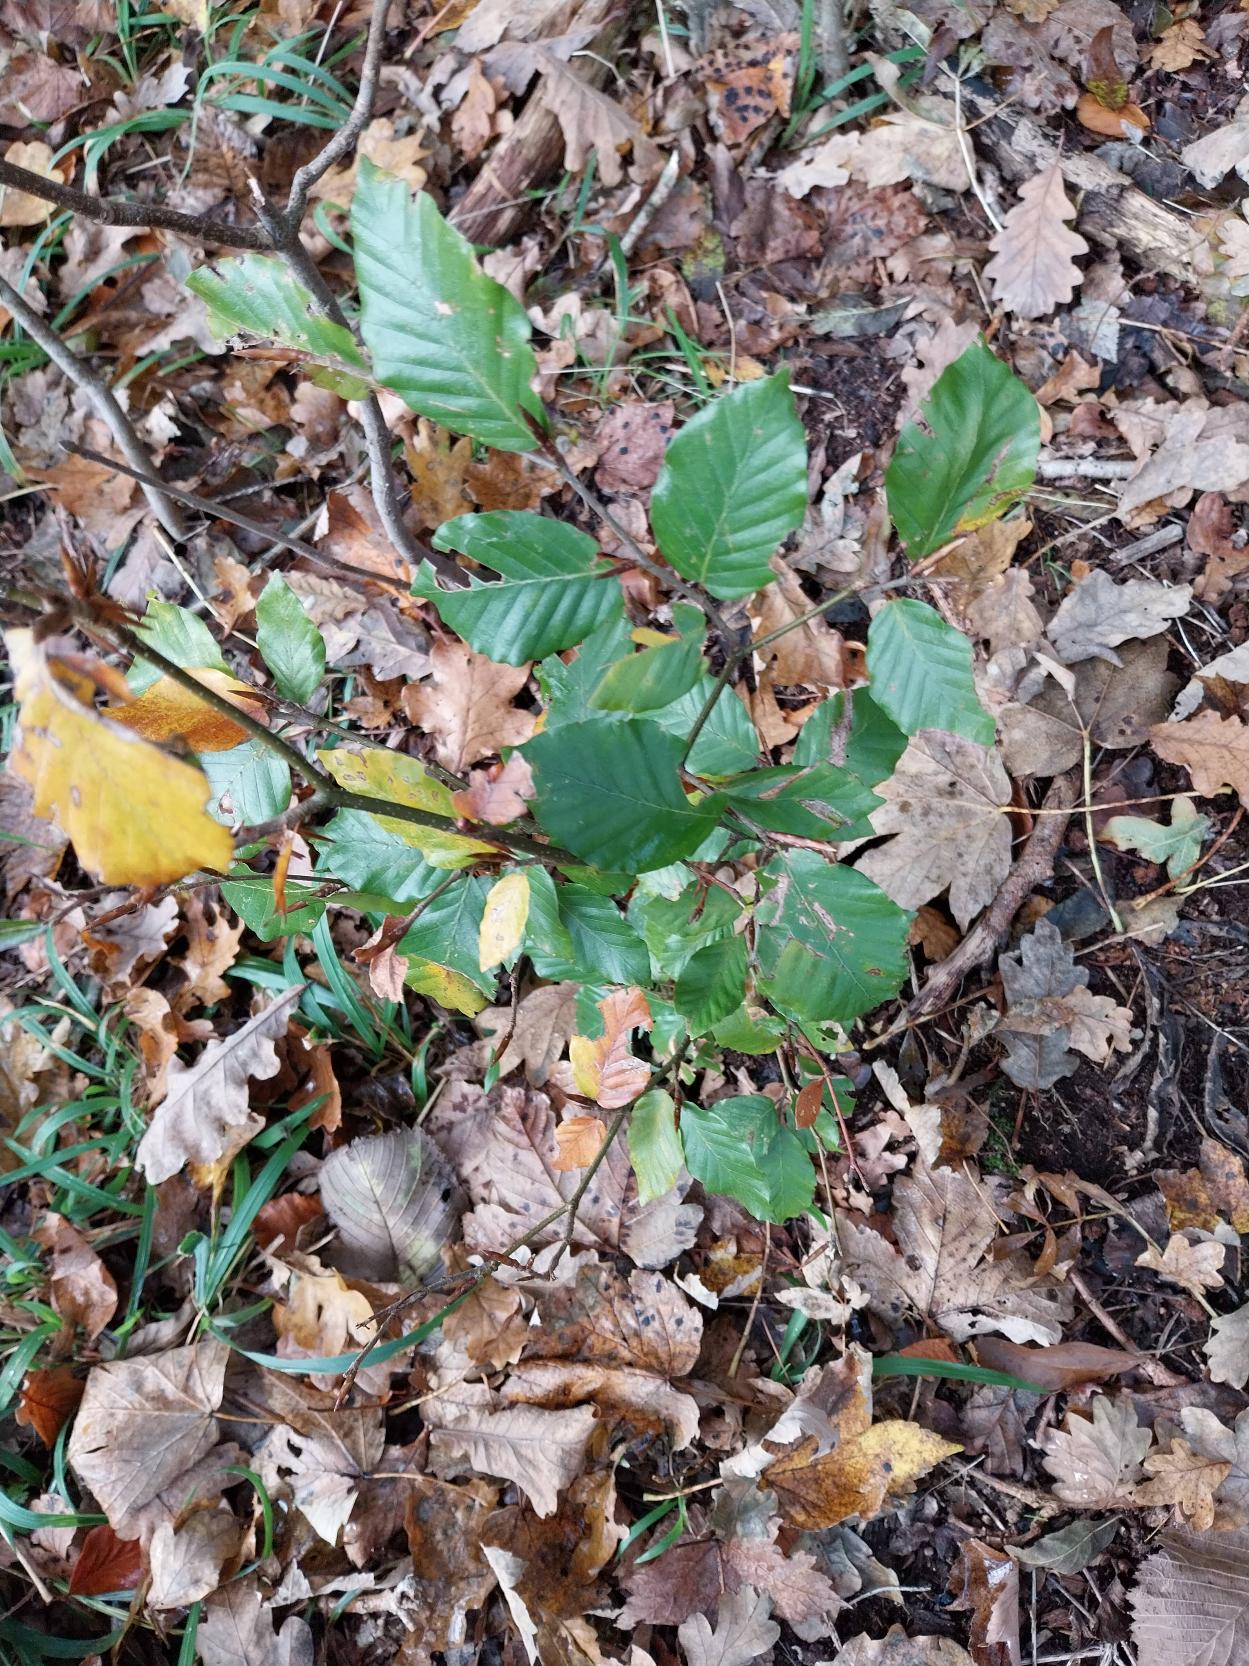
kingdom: Plantae
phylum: Tracheophyta
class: Magnoliopsida
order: Fagales
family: Fagaceae
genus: Fagus
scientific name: Fagus sylvatica
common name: Bøg
